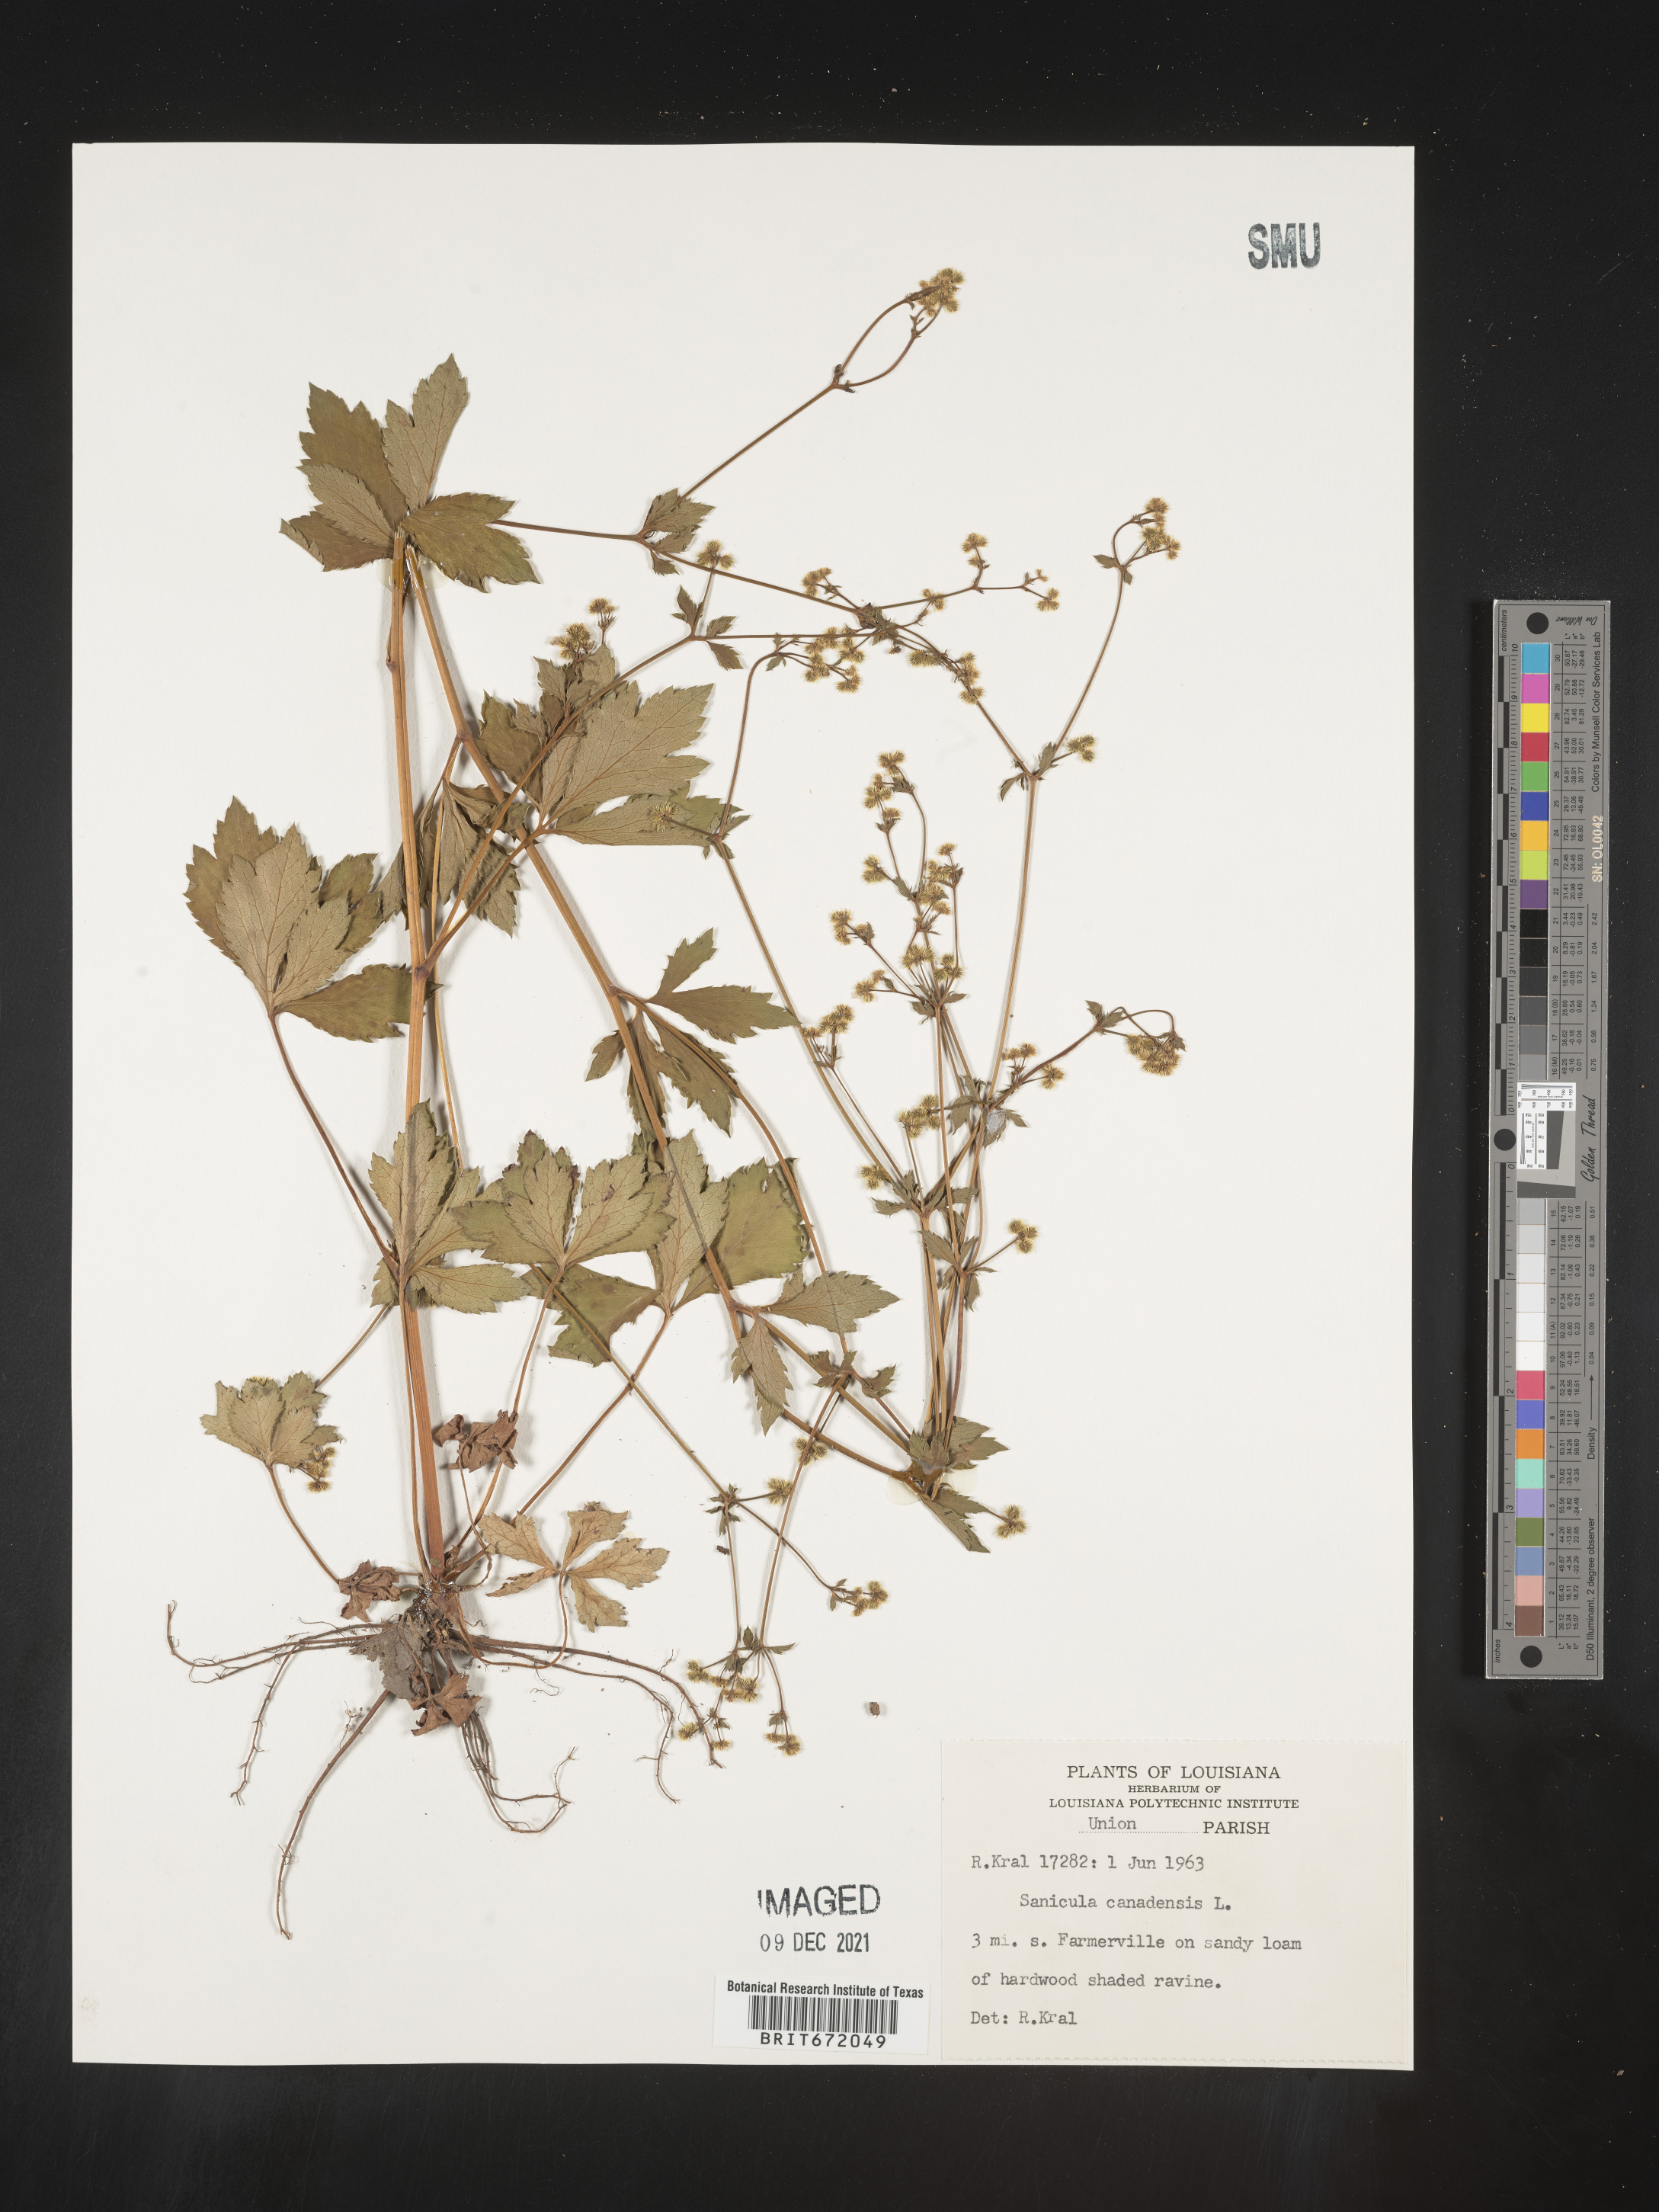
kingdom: Plantae
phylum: Tracheophyta
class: Magnoliopsida
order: Apiales
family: Apiaceae
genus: Sanicula
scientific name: Sanicula canadensis
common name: Canada sanicle
